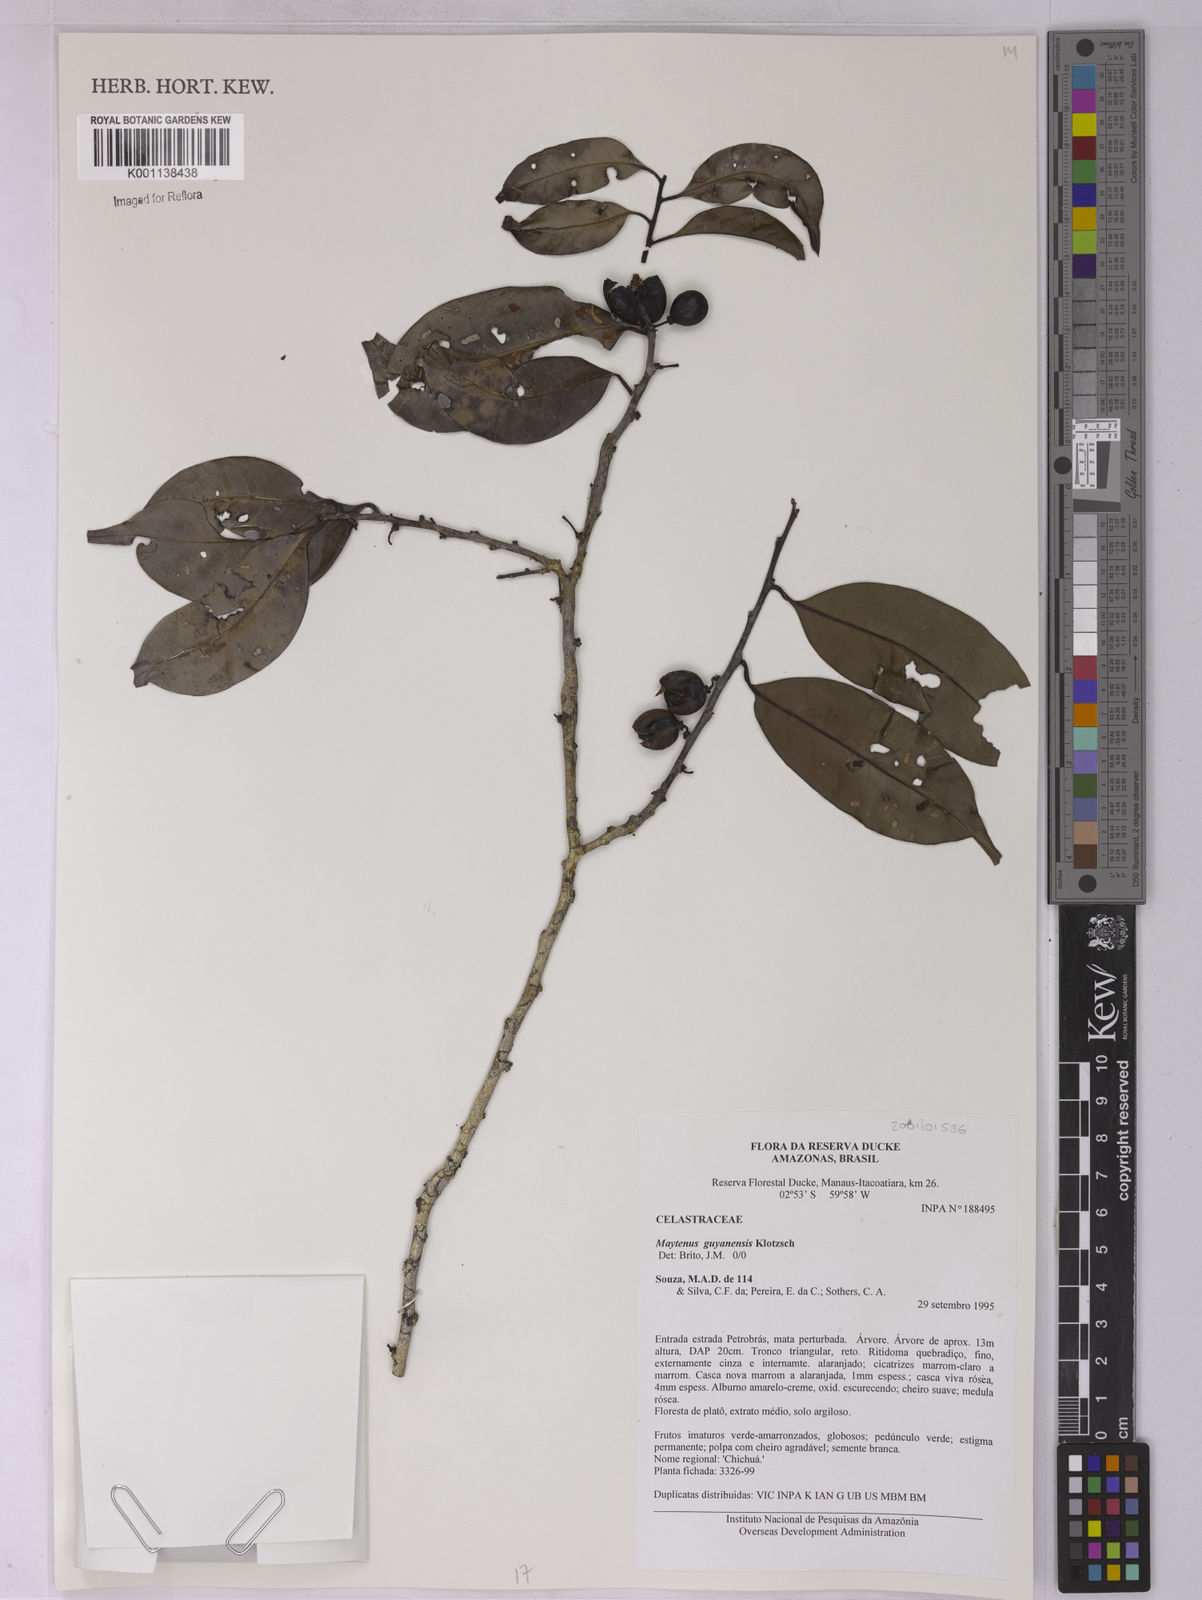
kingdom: Plantae
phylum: Tracheophyta
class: Magnoliopsida
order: Celastrales
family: Celastraceae
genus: Monteverdia
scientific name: Monteverdia guyanensis
